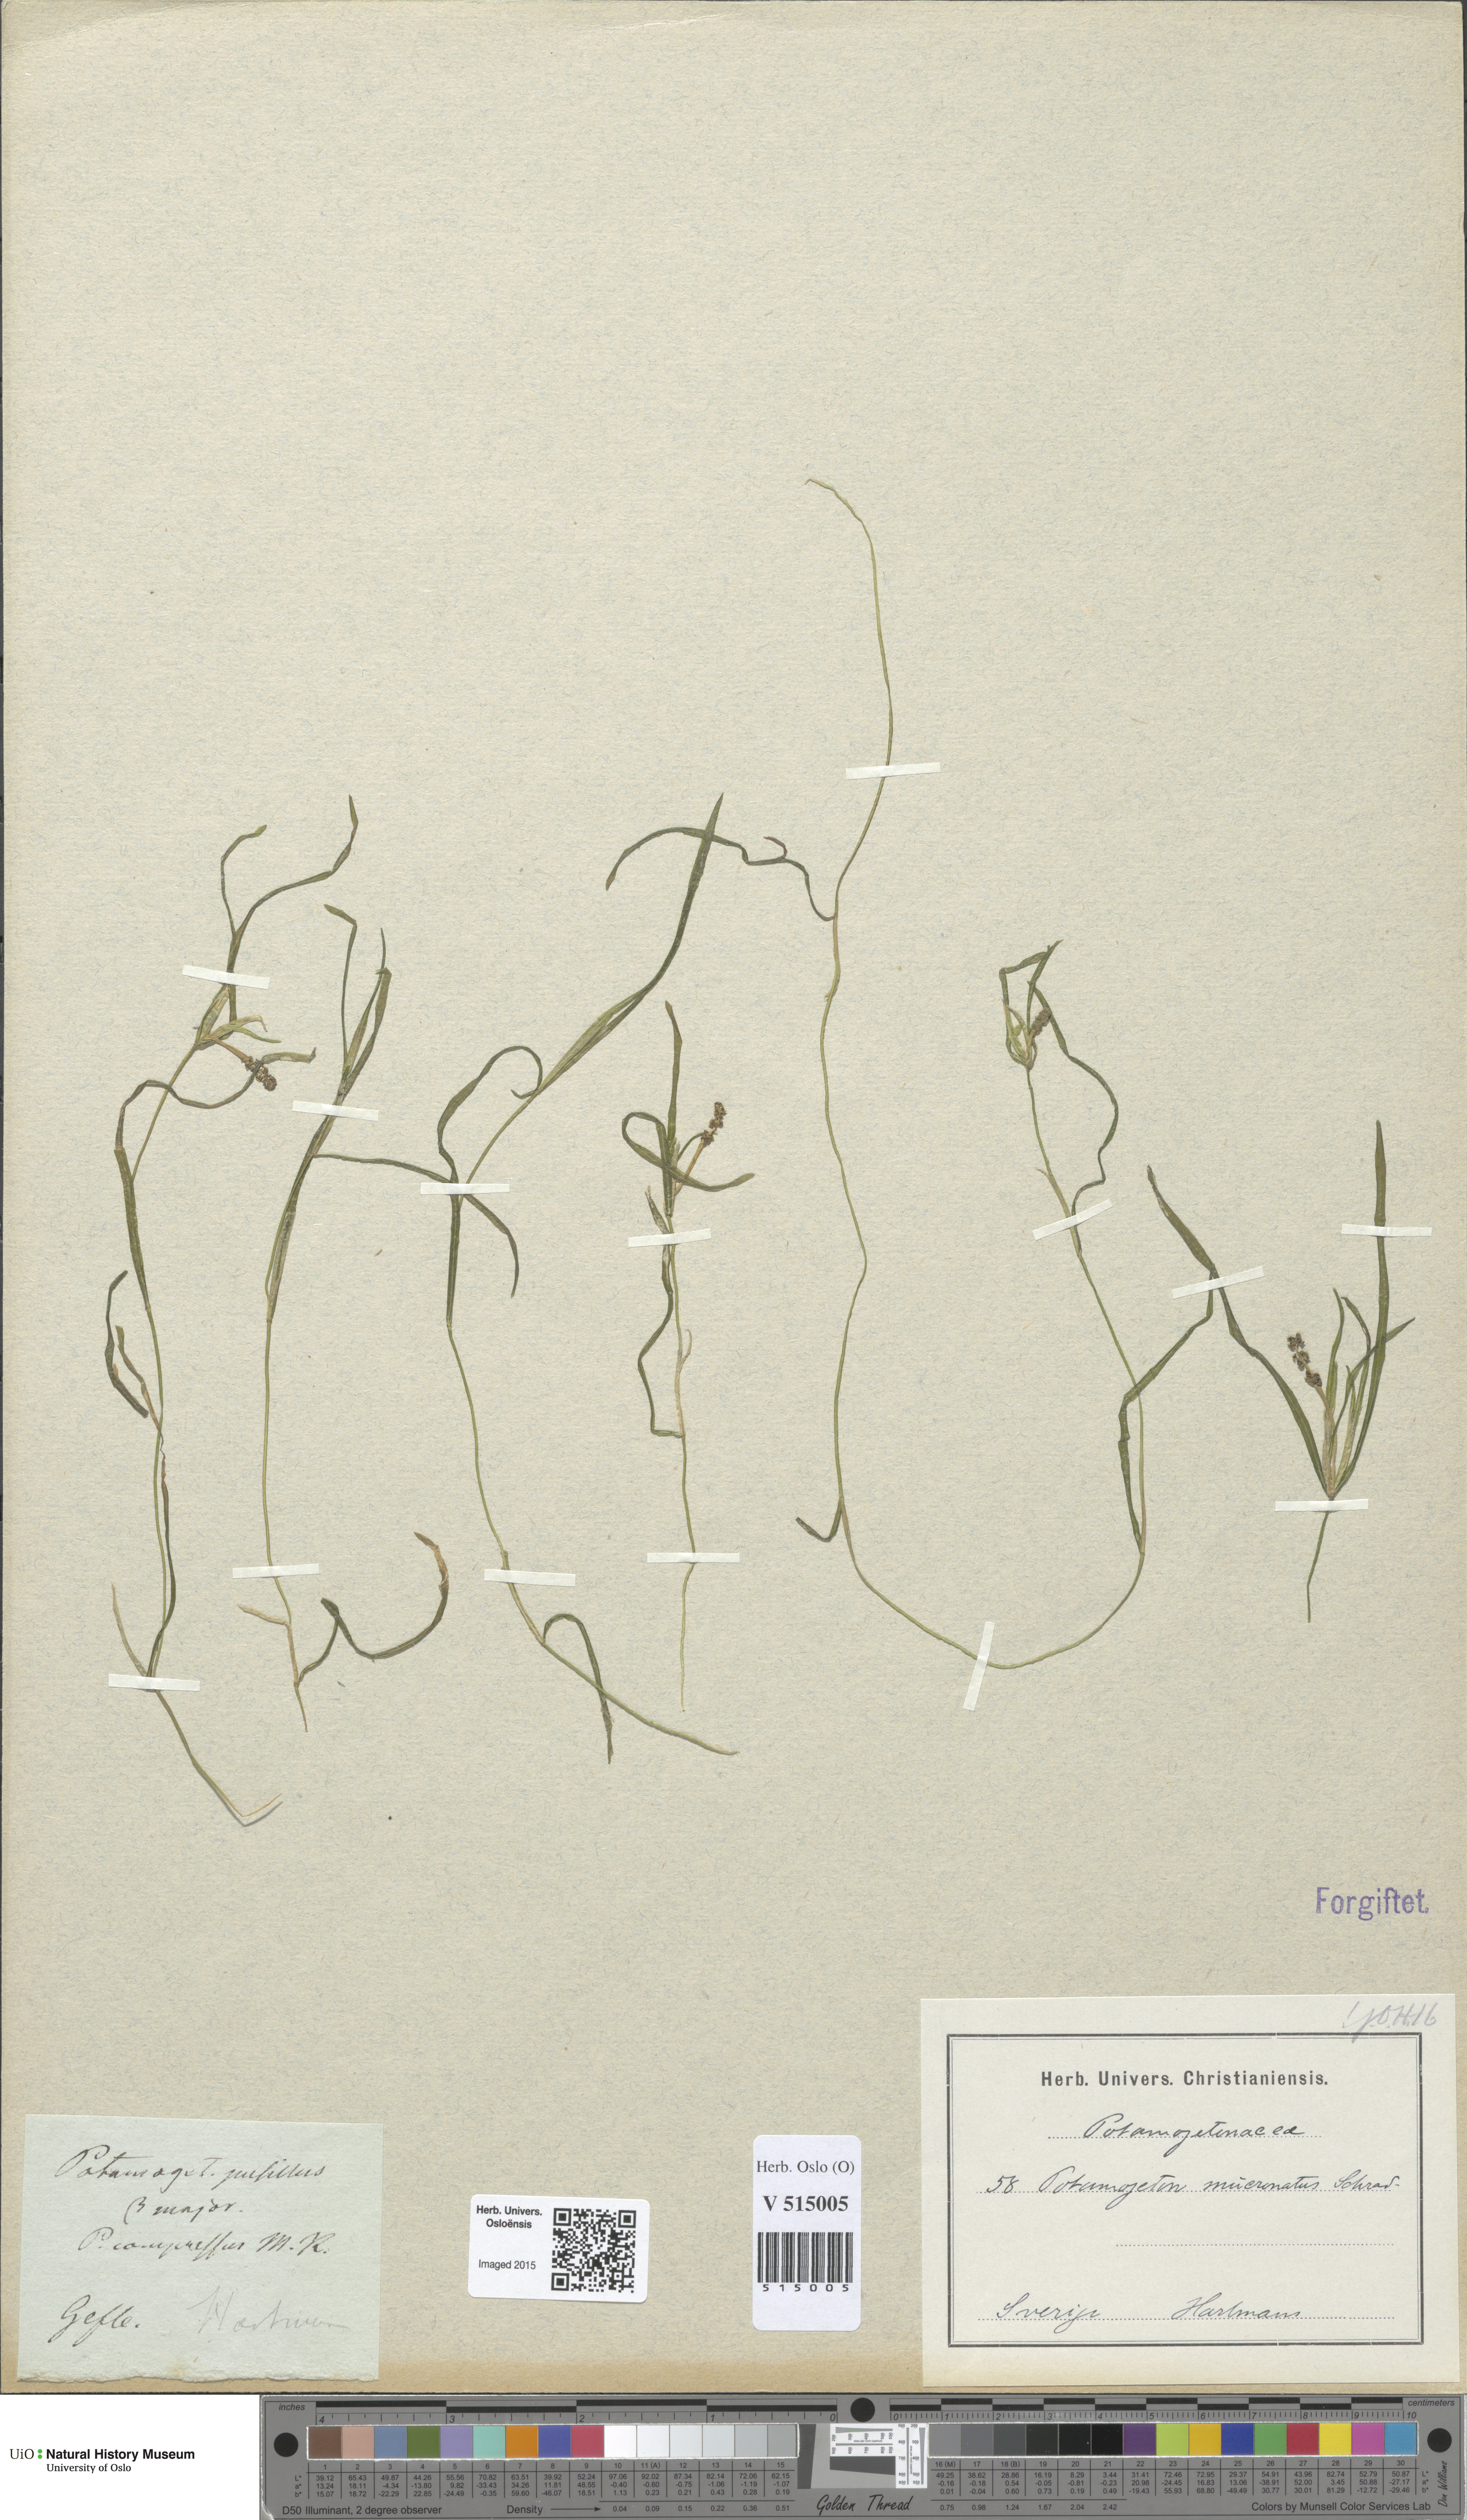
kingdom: Plantae
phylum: Tracheophyta
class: Liliopsida
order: Alismatales
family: Potamogetonaceae
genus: Potamogeton
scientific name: Potamogeton berchtoldii
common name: Small pondweed
